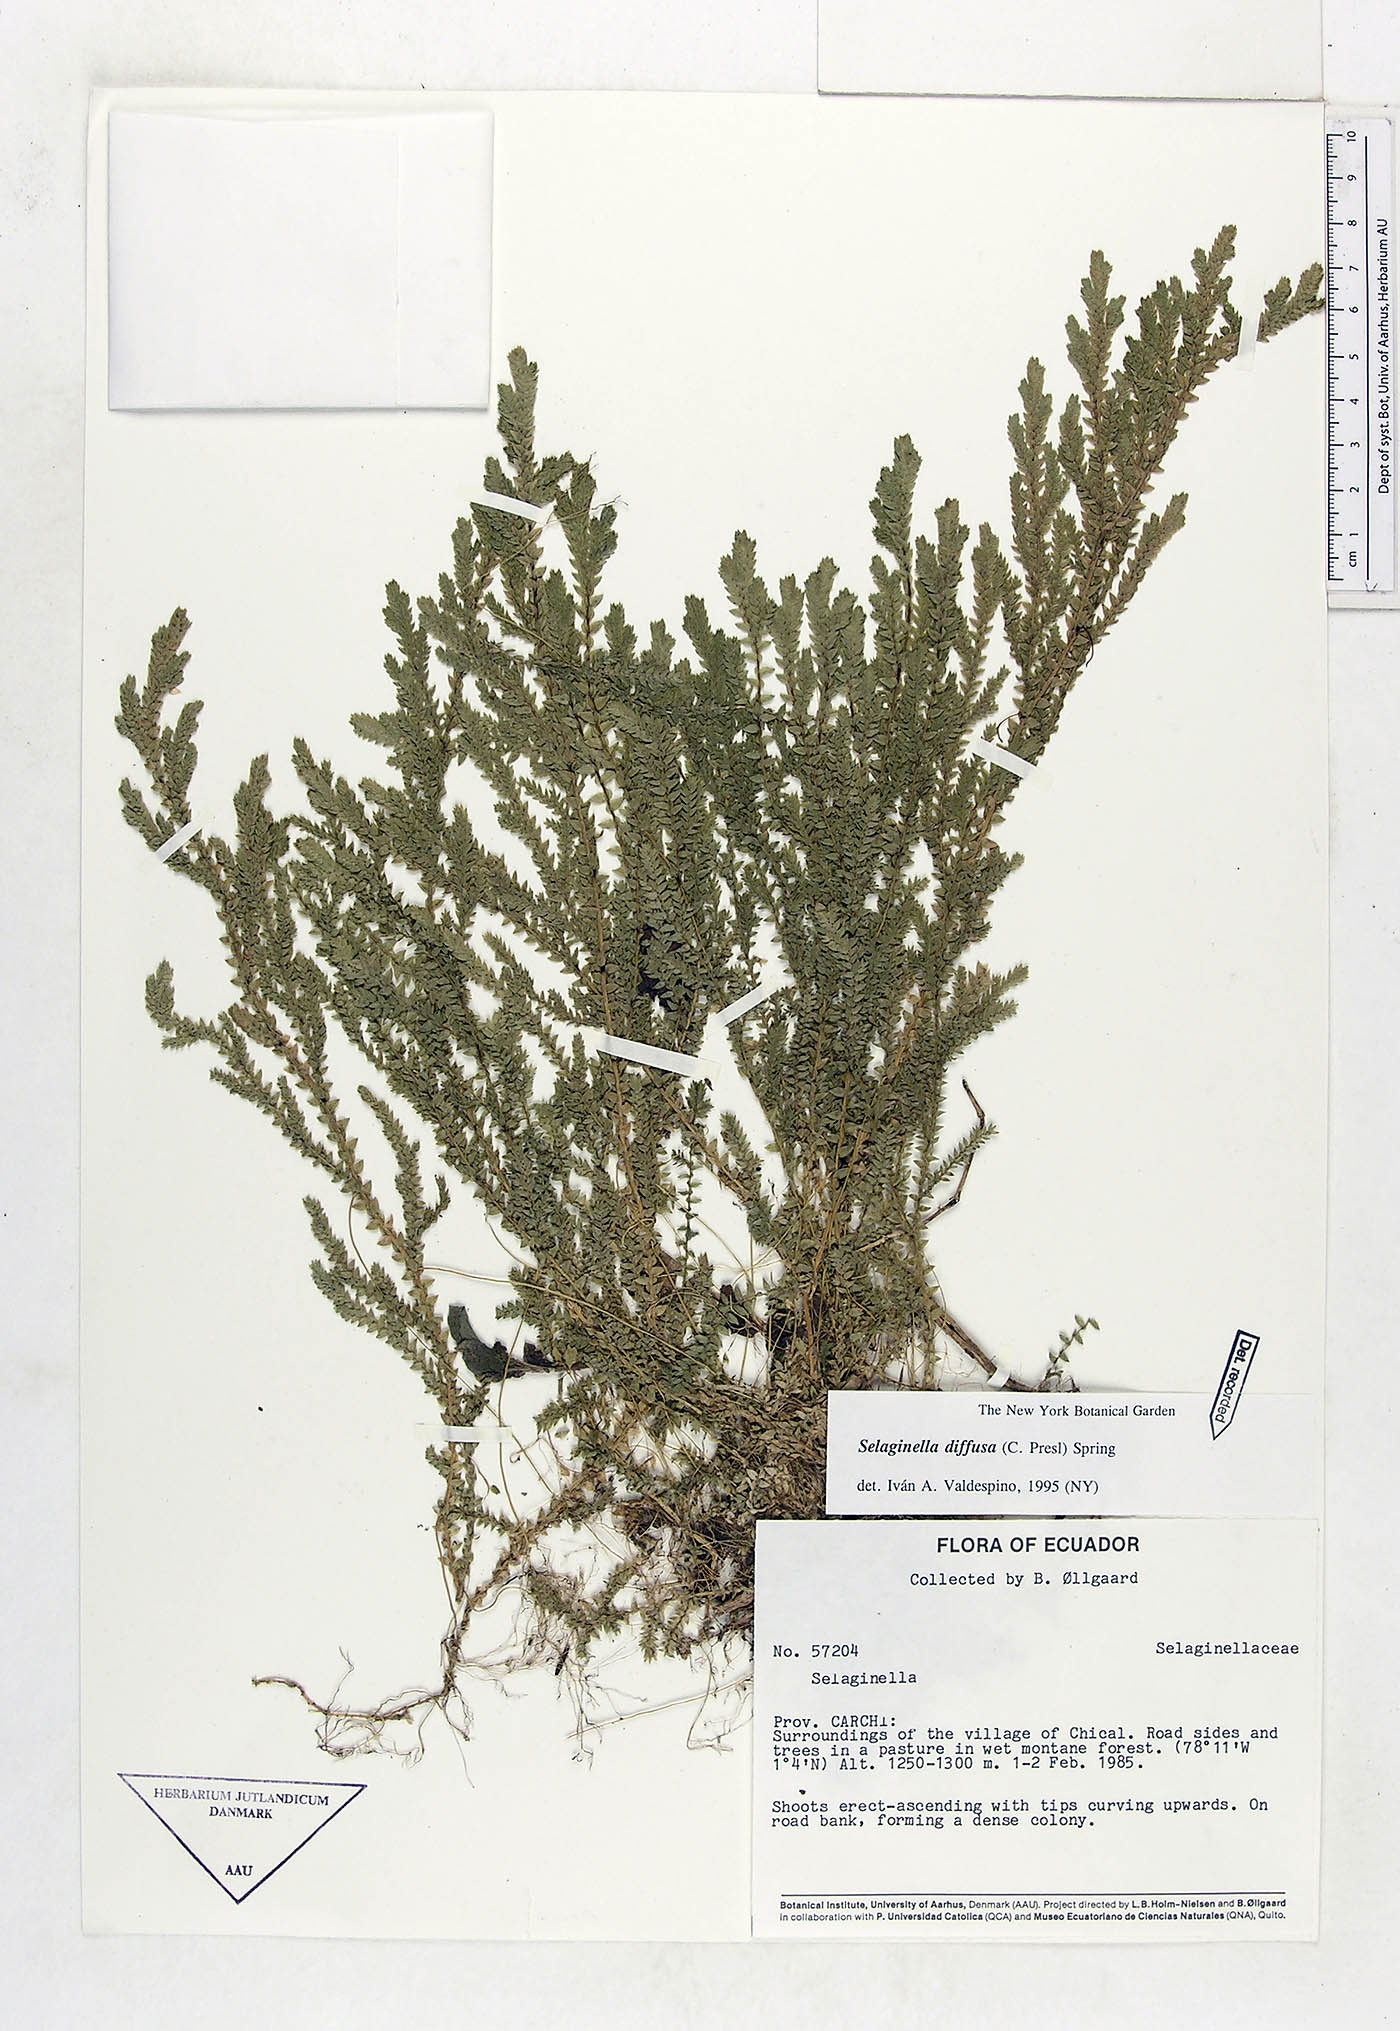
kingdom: Plantae
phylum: Tracheophyta
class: Lycopodiopsida
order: Selaginellales
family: Selaginellaceae
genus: Selaginella
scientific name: Selaginella diffusa
